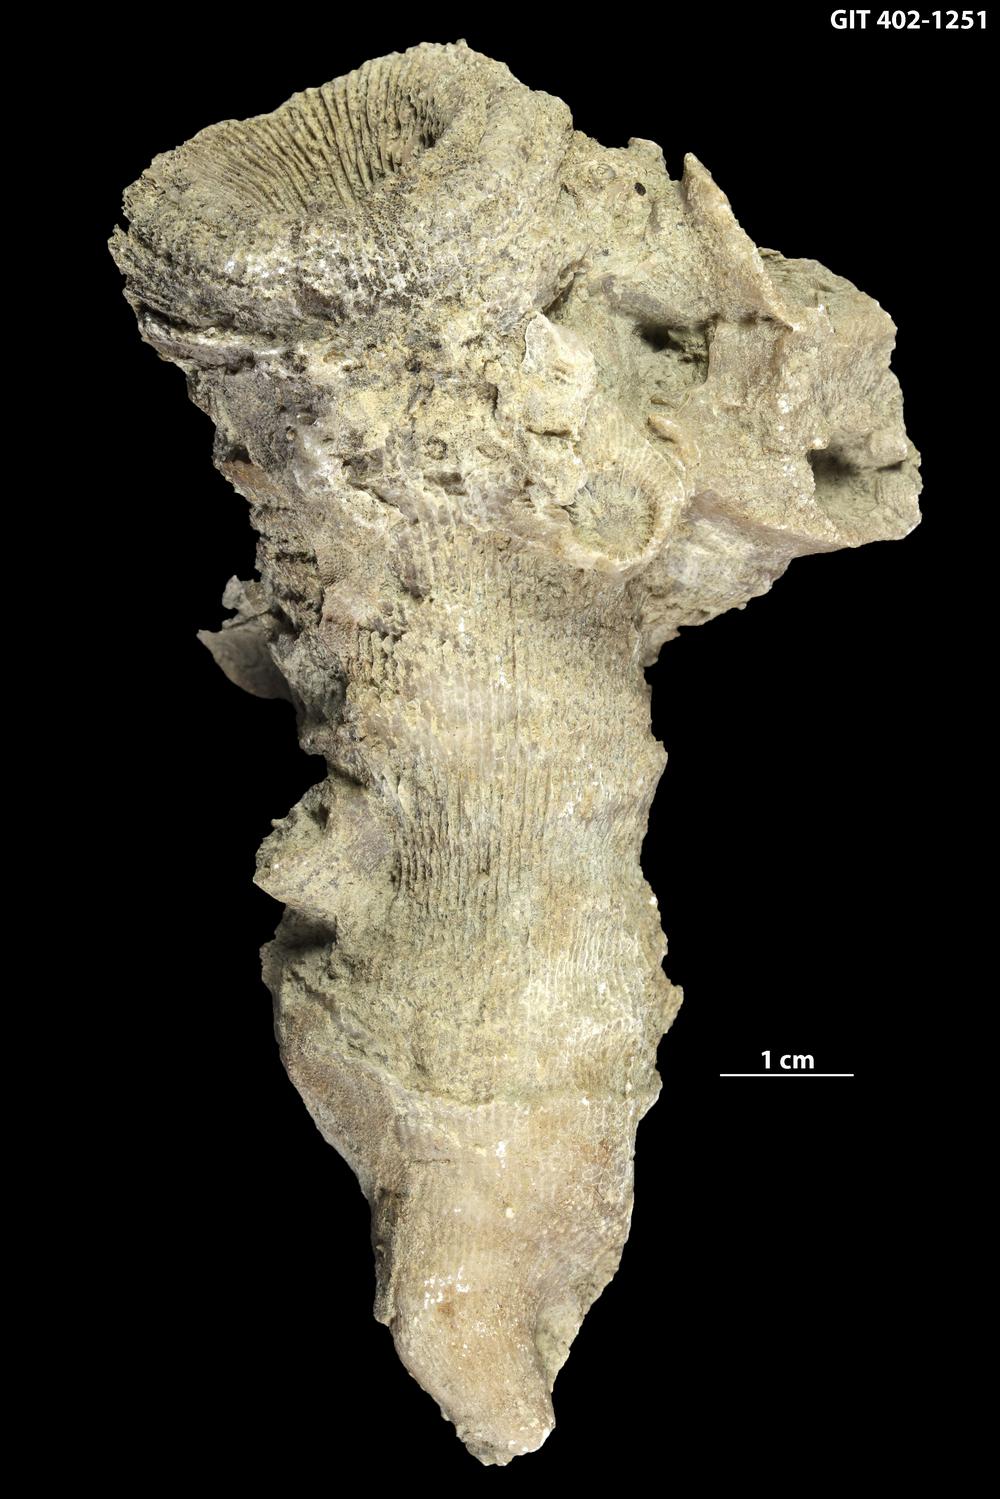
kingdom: Animalia
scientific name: Animalia
